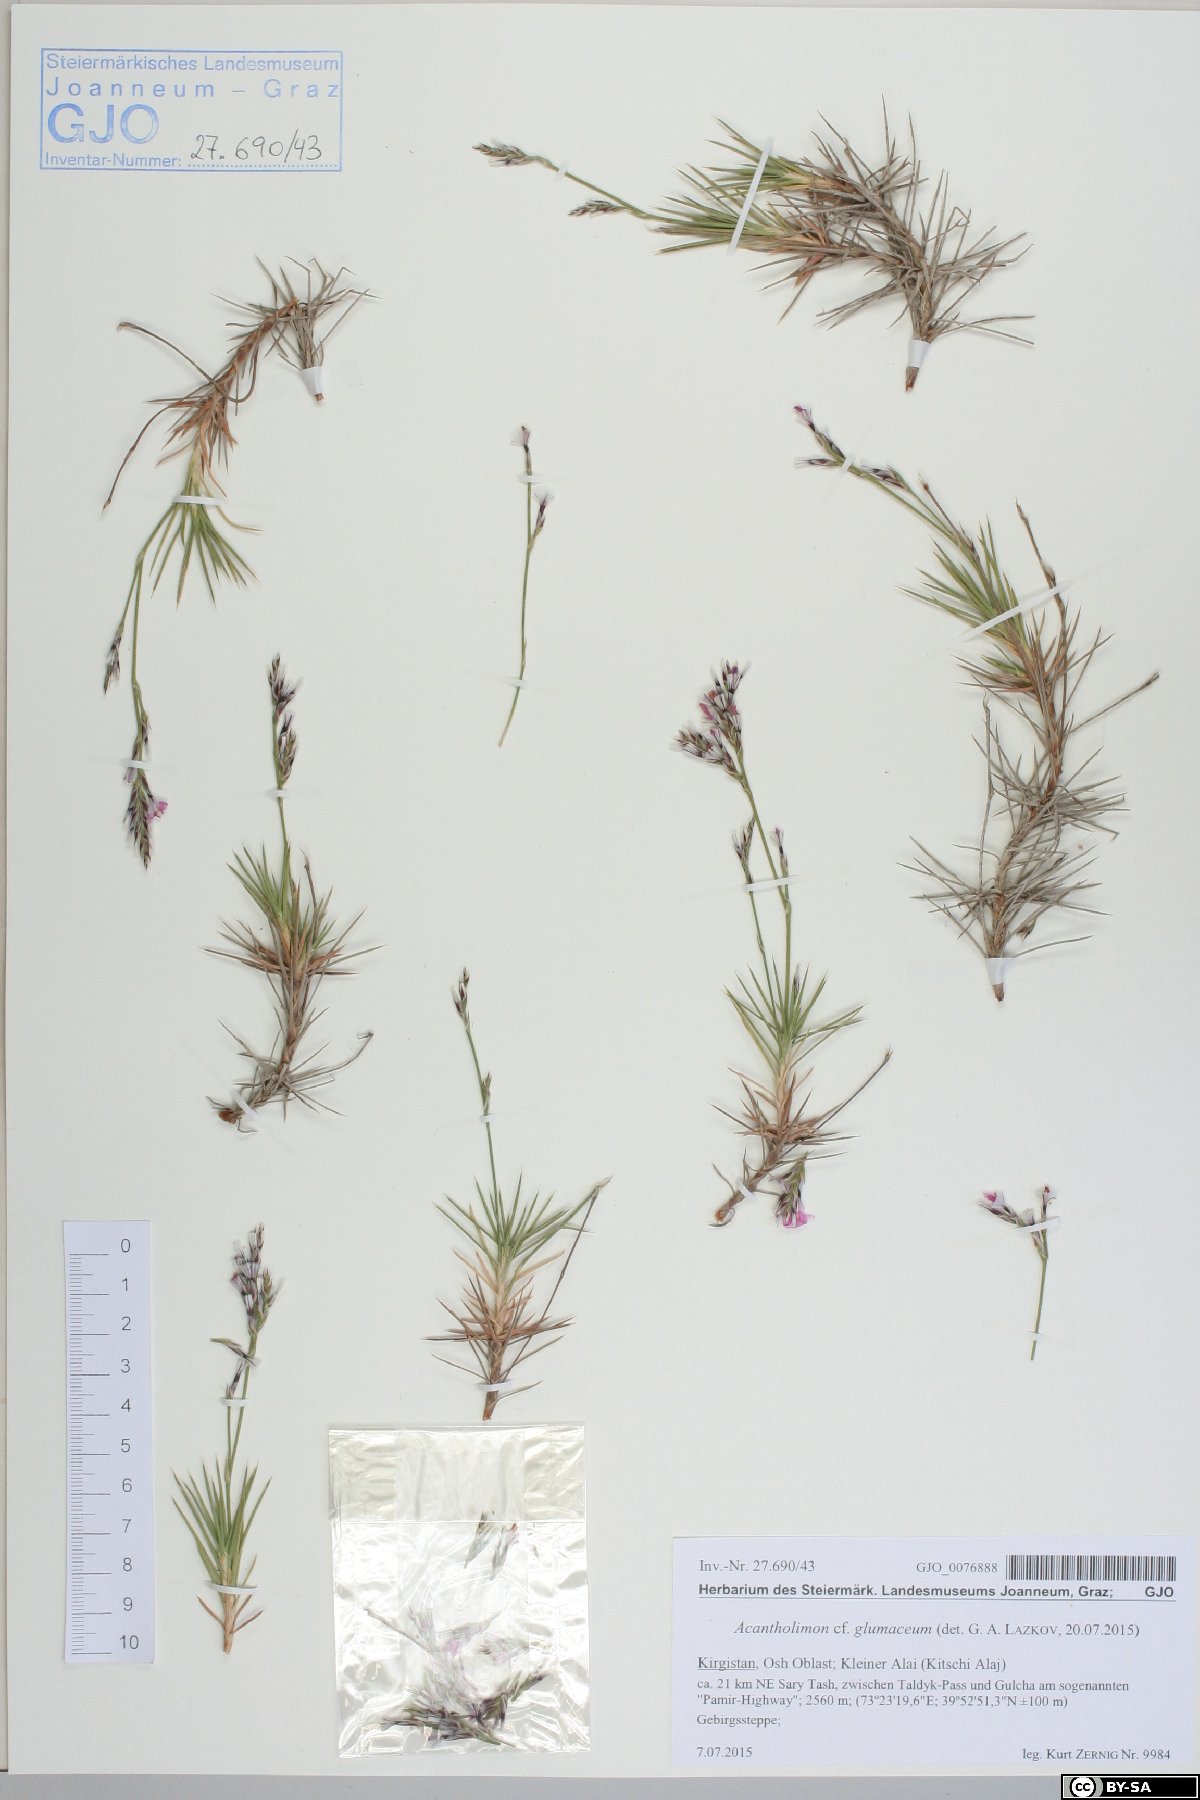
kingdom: Plantae
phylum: Tracheophyta
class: Magnoliopsida
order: Caryophyllales
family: Plumbaginaceae
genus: Acantholimon
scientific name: Acantholimon glumaceum
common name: Prickly-thrift
